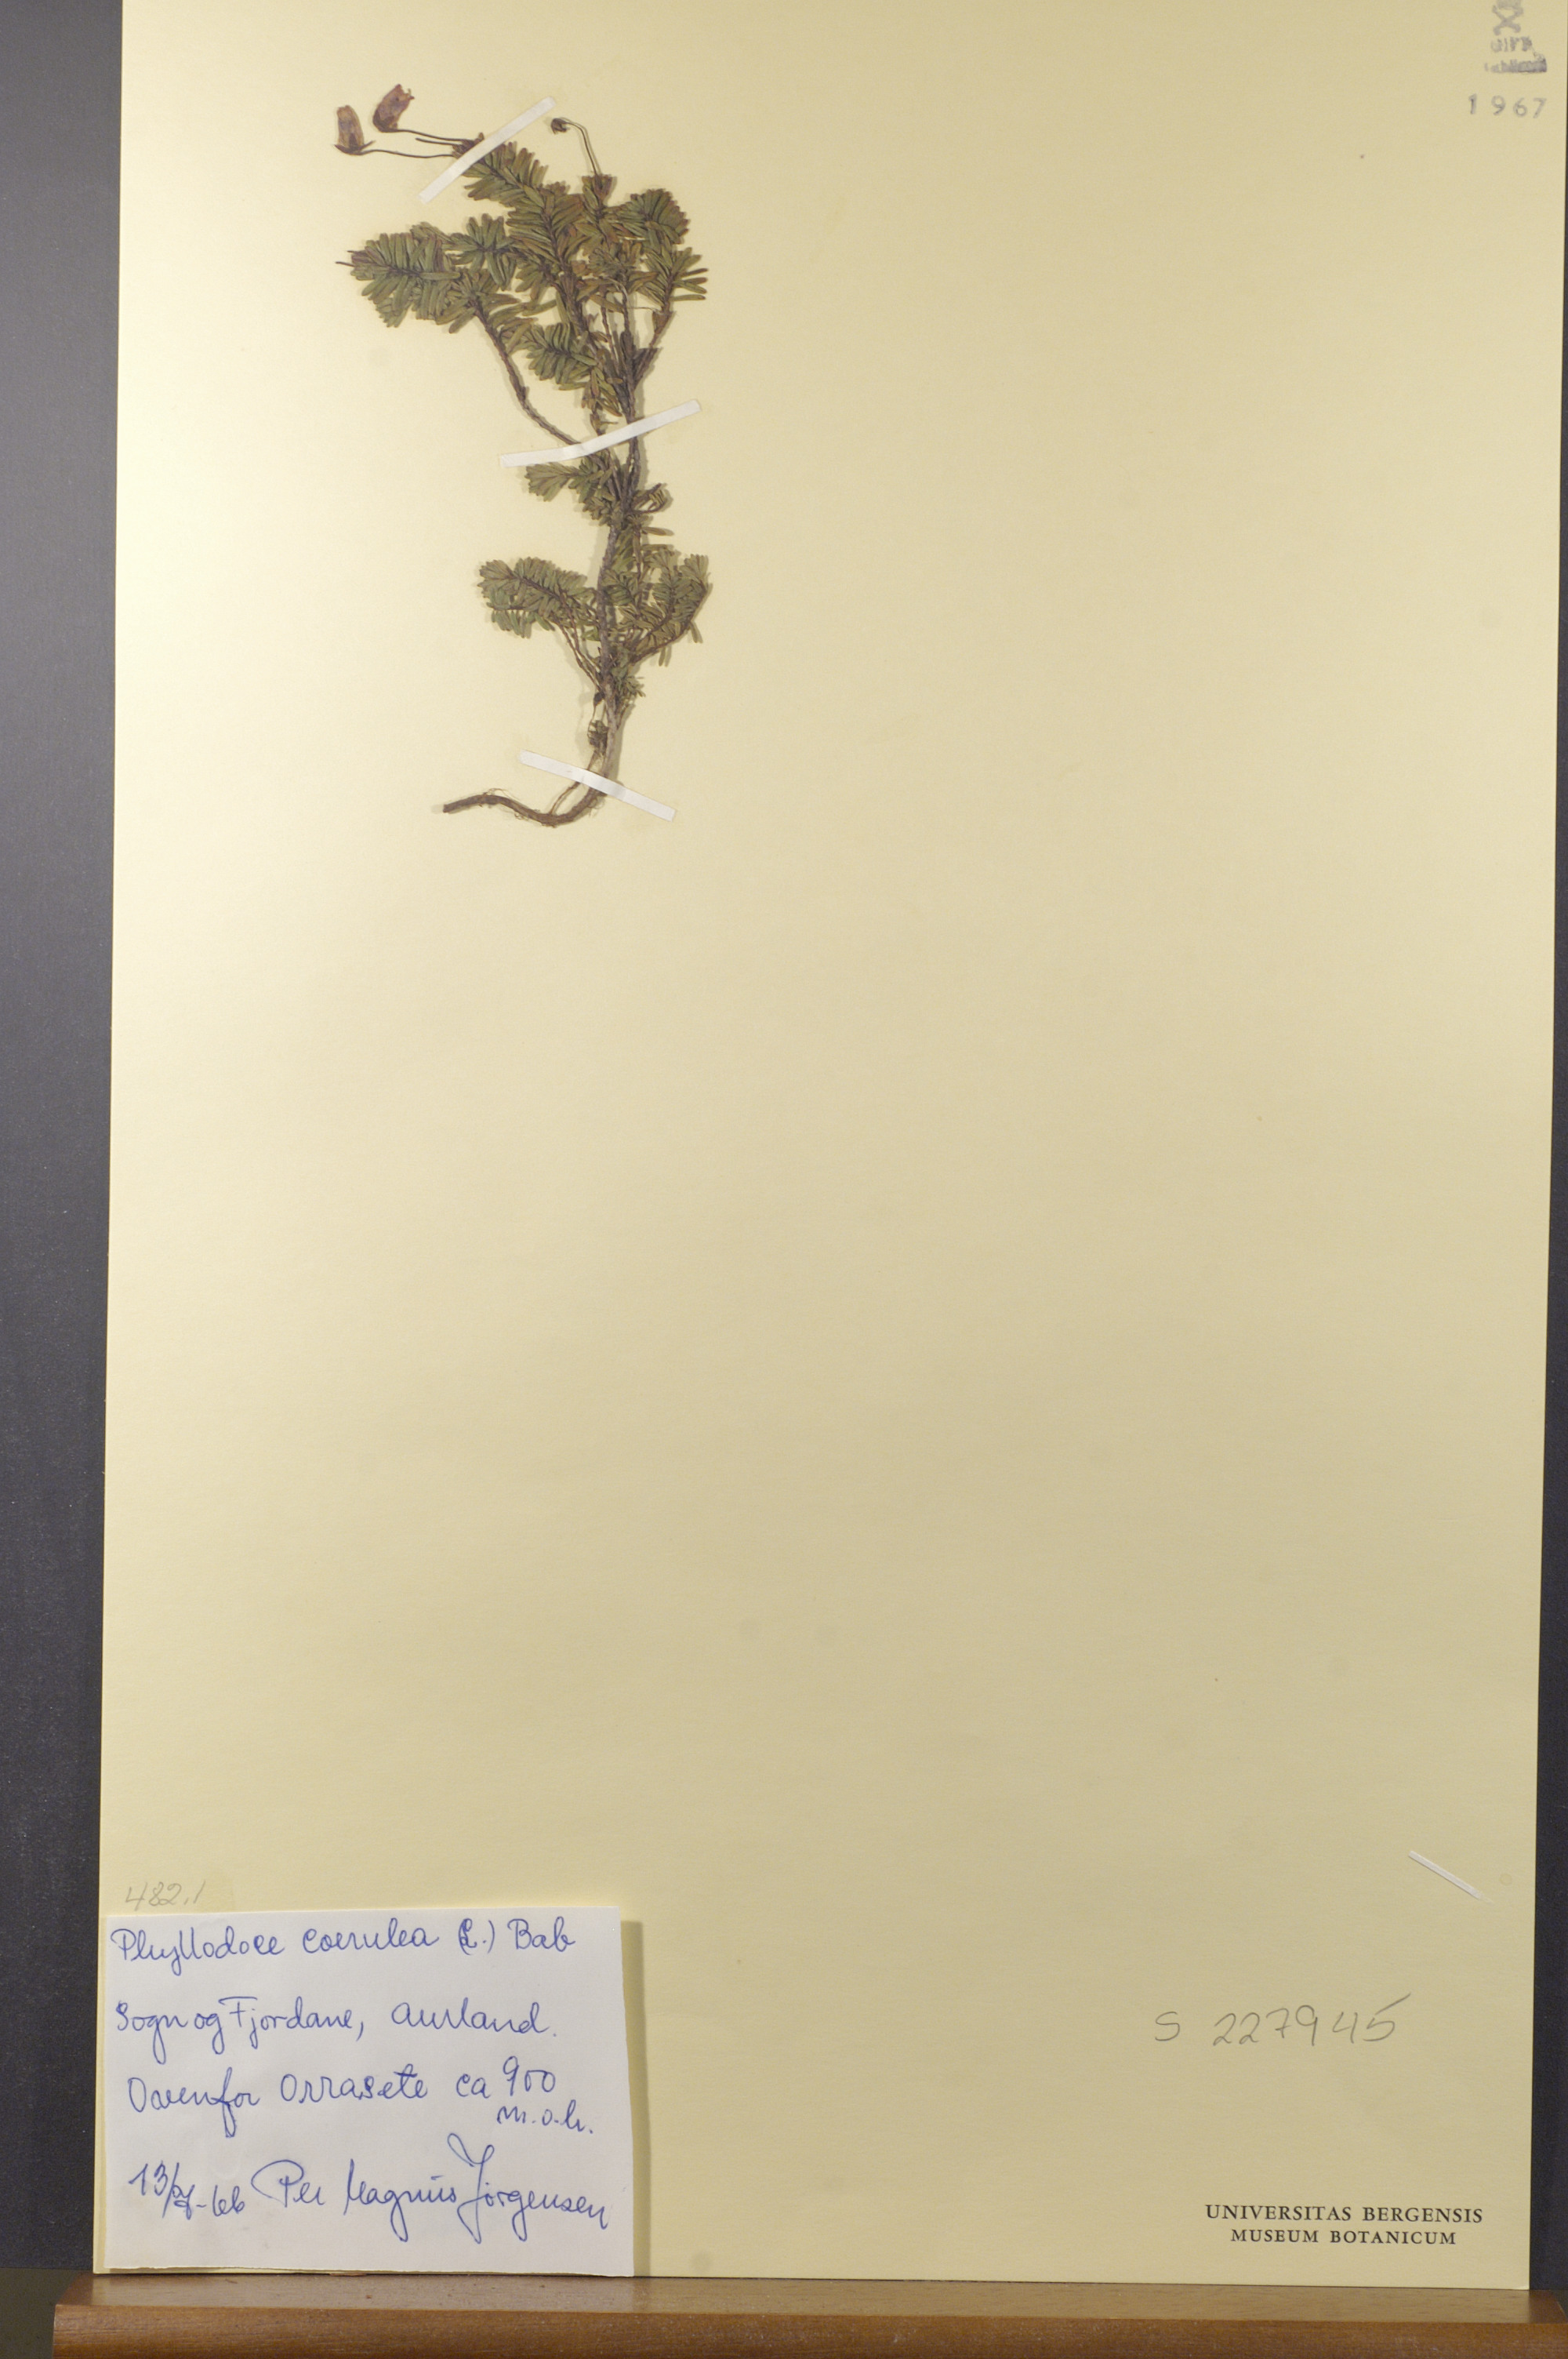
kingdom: Plantae
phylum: Tracheophyta
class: Magnoliopsida
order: Ericales
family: Ericaceae
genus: Phyllodoce
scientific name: Phyllodoce caerulea
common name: Blue heath
